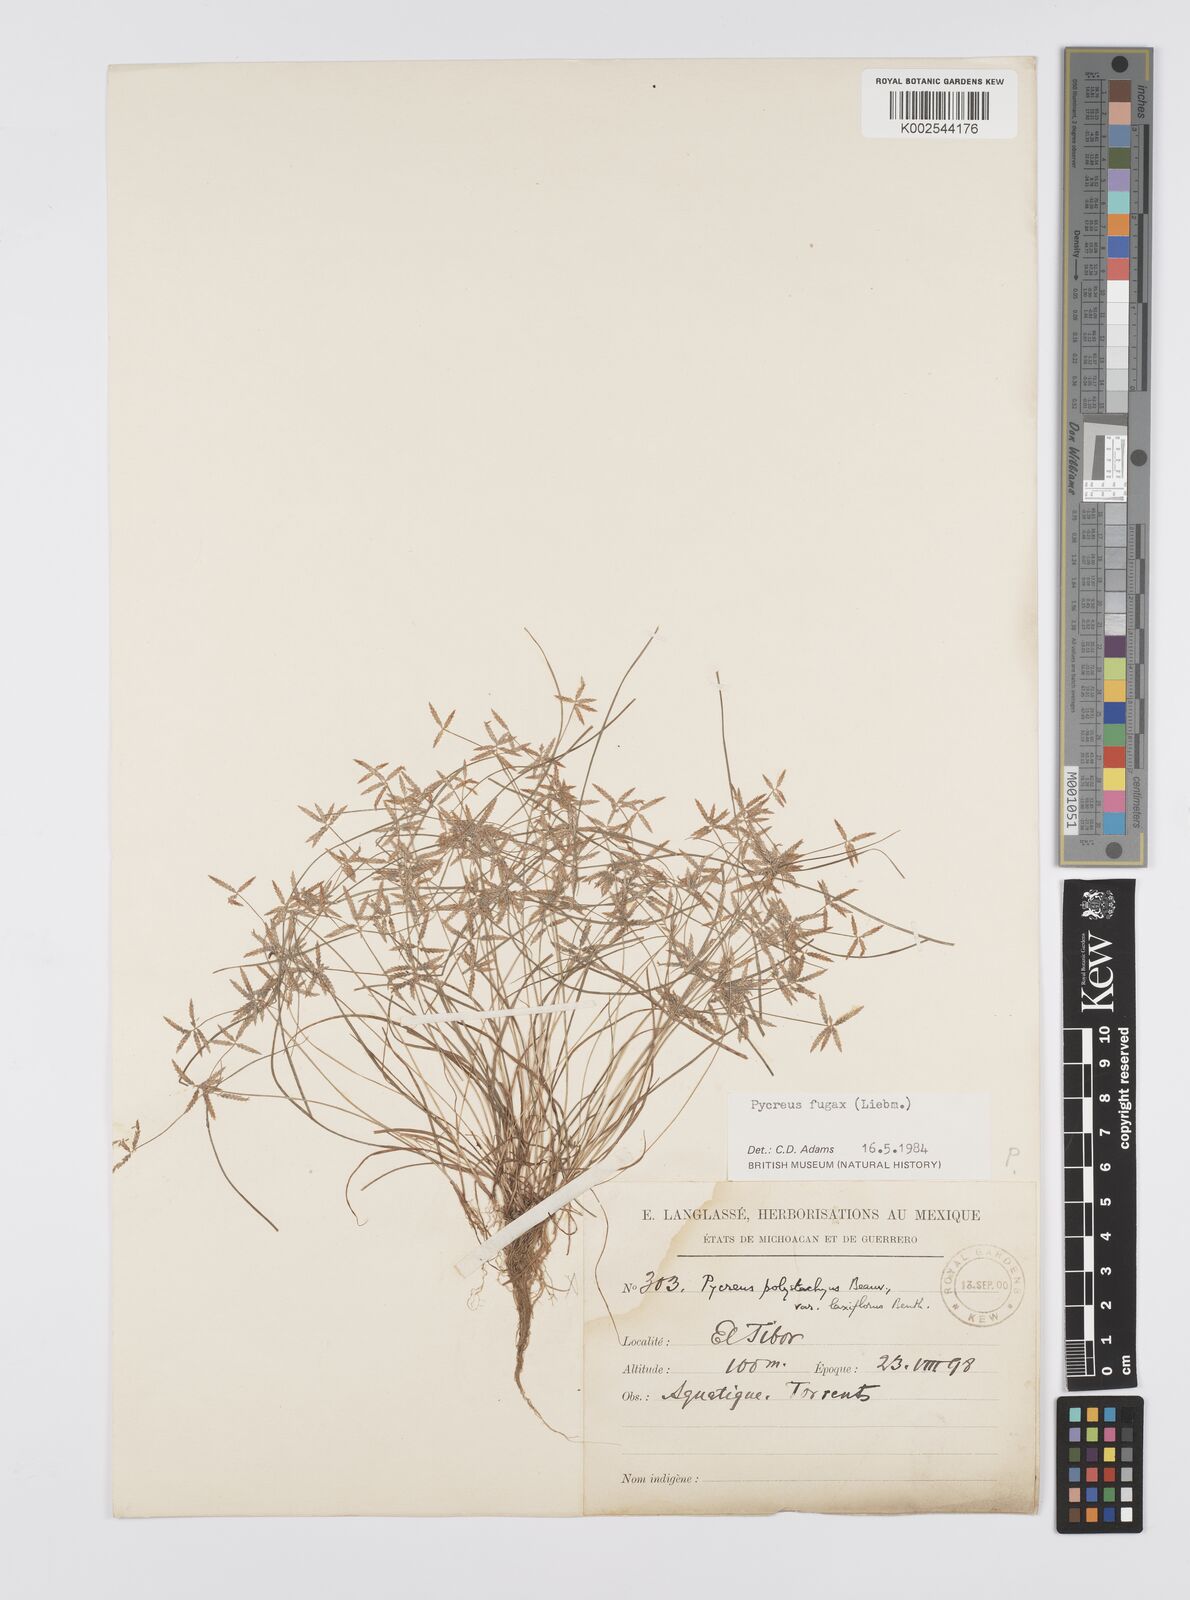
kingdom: Plantae
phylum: Tracheophyta
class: Liliopsida
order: Poales
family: Cyperaceae
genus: Cyperus
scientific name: Cyperus polystachyos
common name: Bunchy flat sedge
